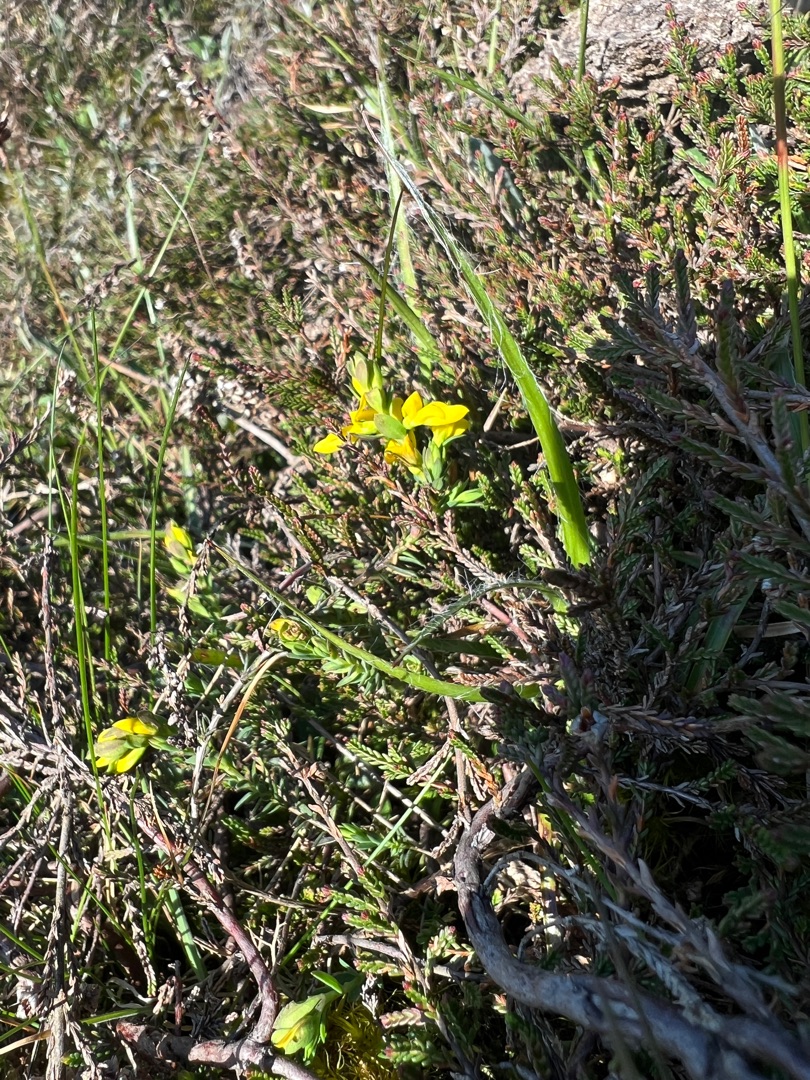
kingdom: Plantae
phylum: Tracheophyta
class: Magnoliopsida
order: Fabales
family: Fabaceae
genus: Genista
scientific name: Genista anglica
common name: Engelsk visse
